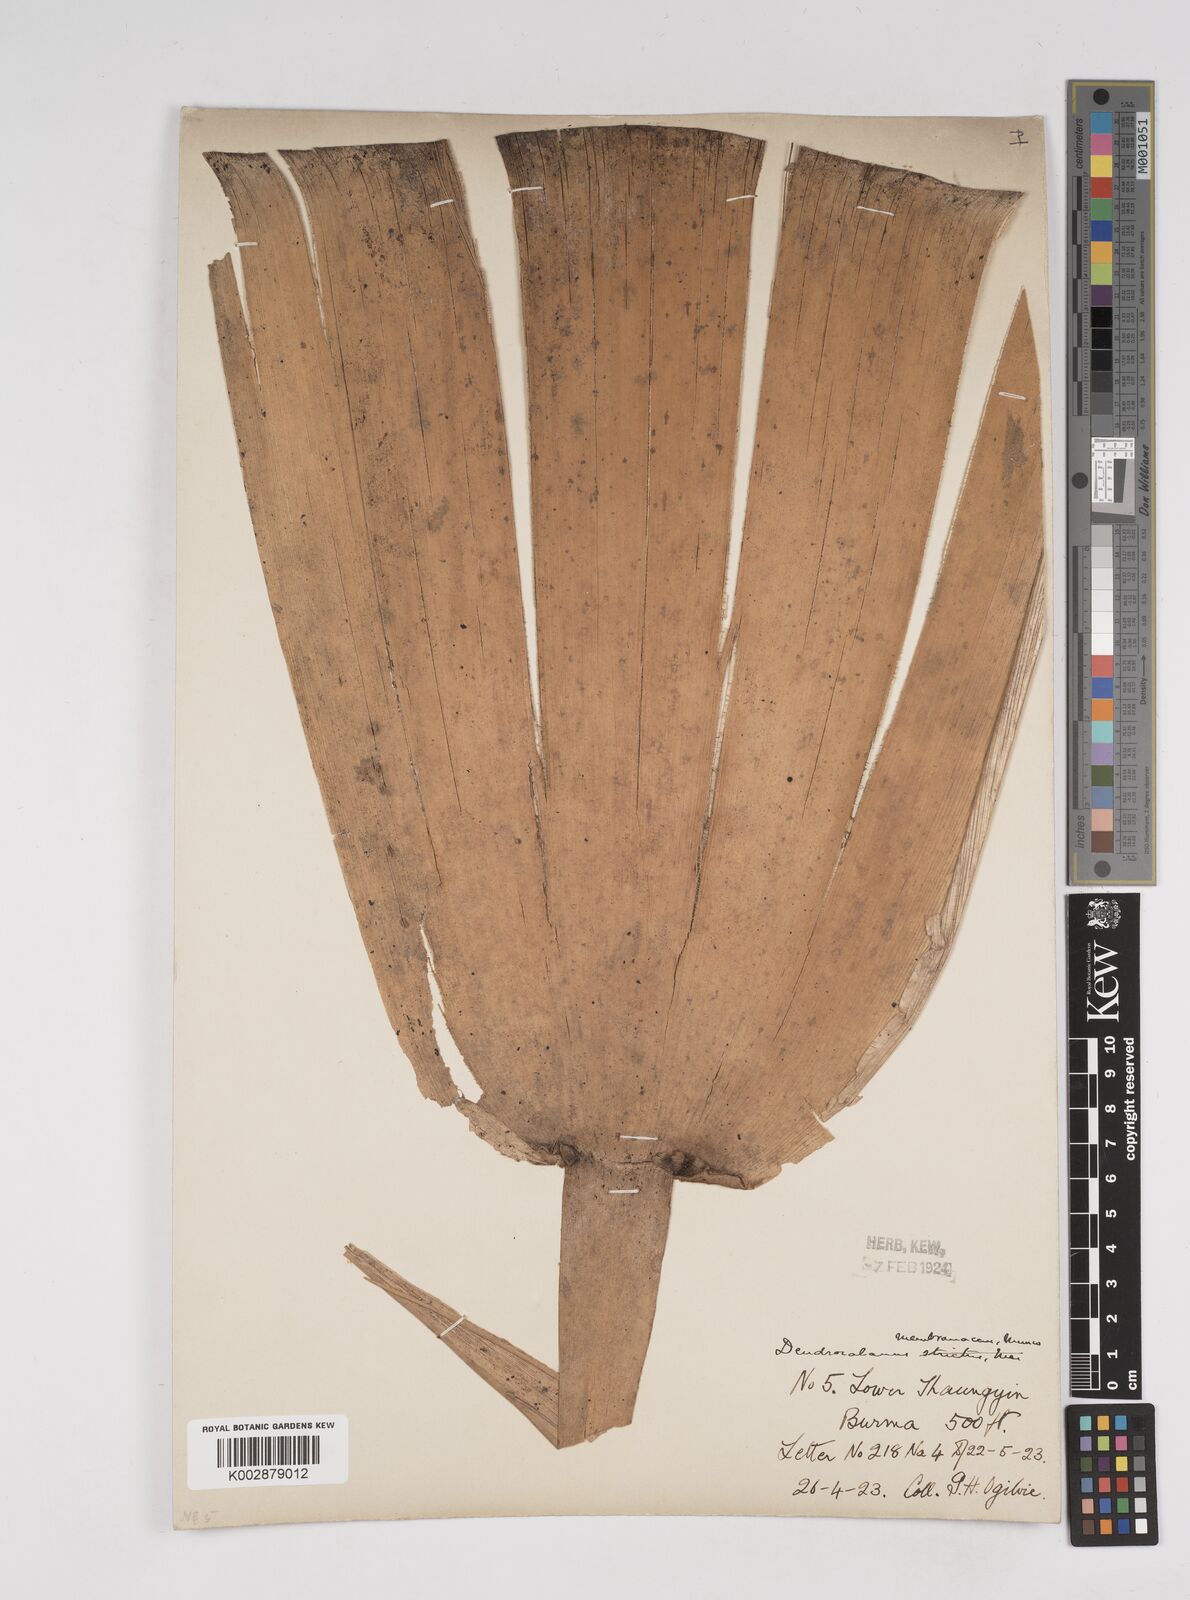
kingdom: Plantae
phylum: Tracheophyta
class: Liliopsida
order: Poales
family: Poaceae
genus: Dendrocalamus
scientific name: Dendrocalamus membranaceus
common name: White bamboo
